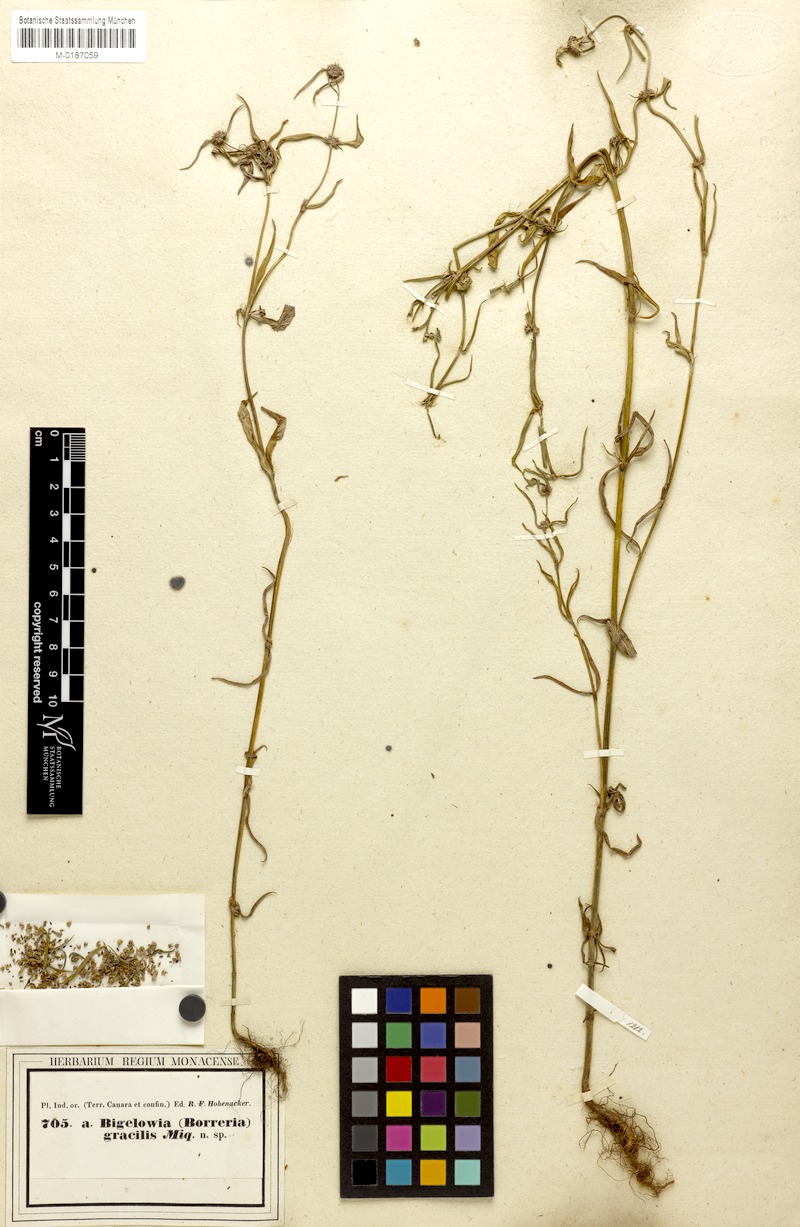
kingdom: Plantae
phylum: Tracheophyta
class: Magnoliopsida
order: Gentianales
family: Rubiaceae
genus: Spermacoce
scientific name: Spermacoce pusilla
